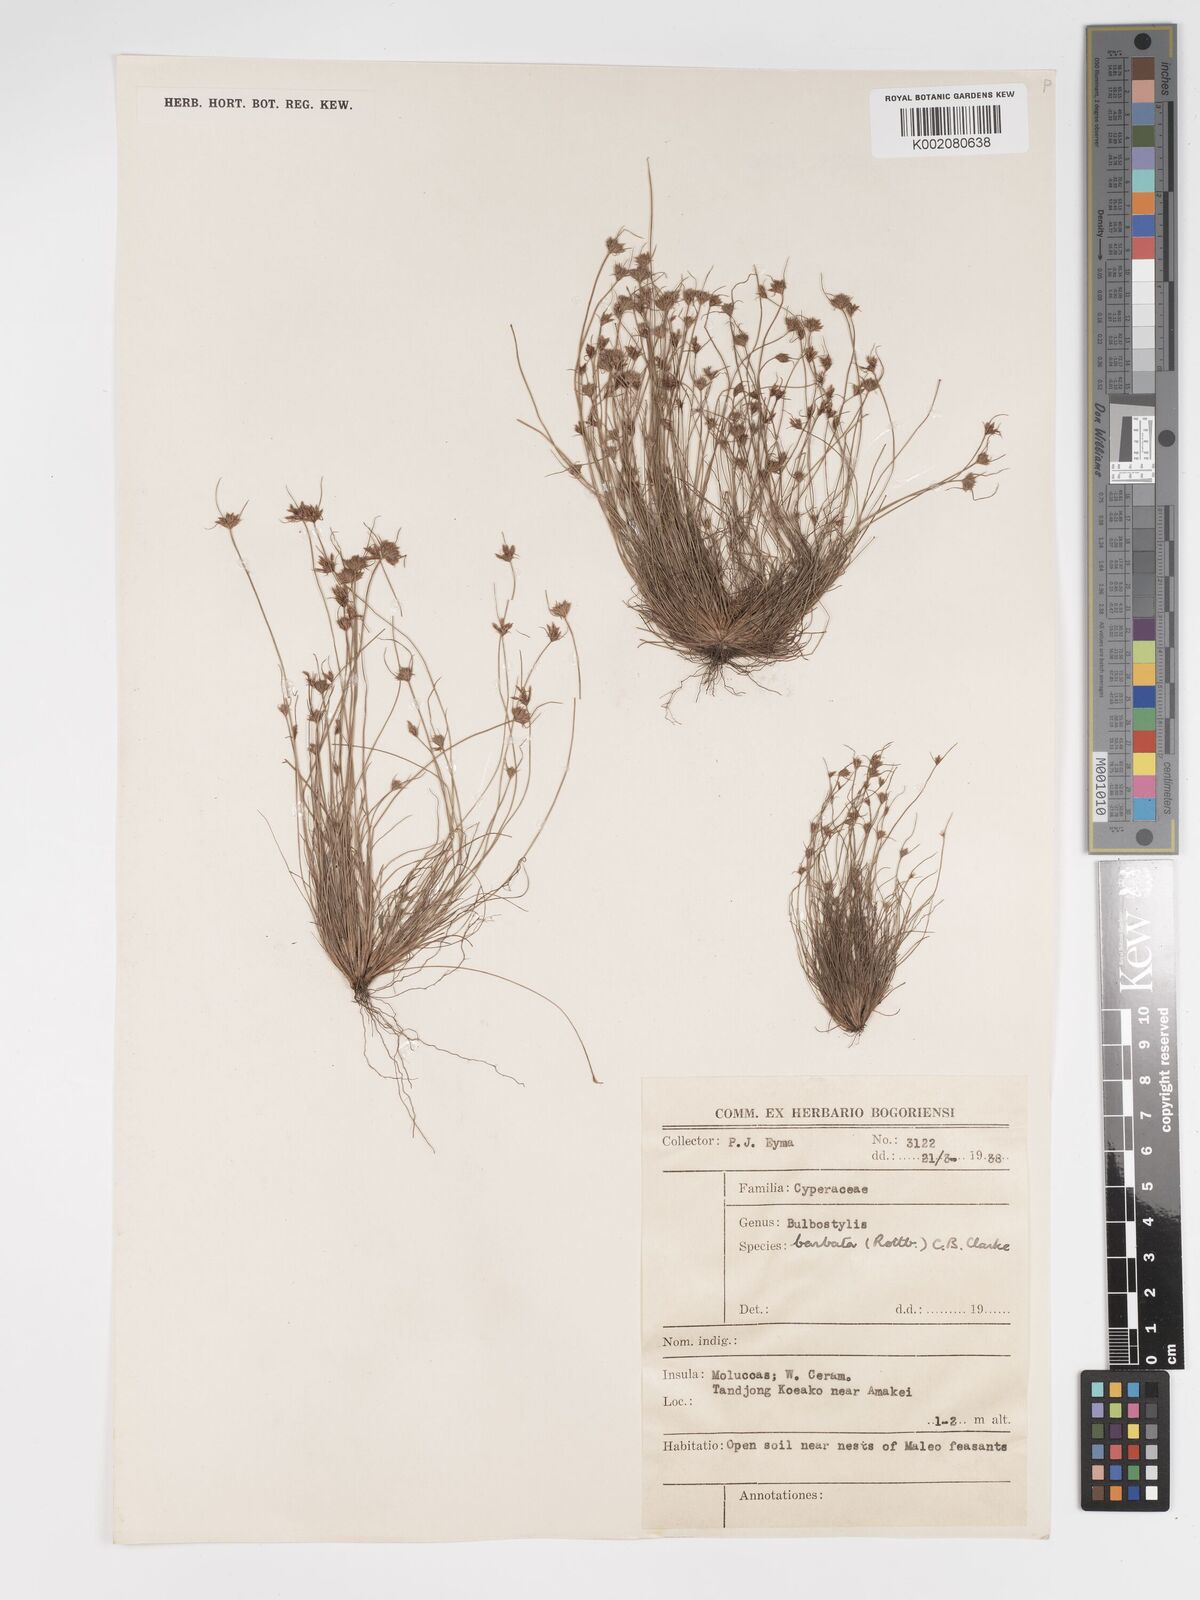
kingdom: Plantae
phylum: Tracheophyta
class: Liliopsida
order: Poales
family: Cyperaceae
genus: Bulbostylis
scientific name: Bulbostylis barbata
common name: Watergrass
